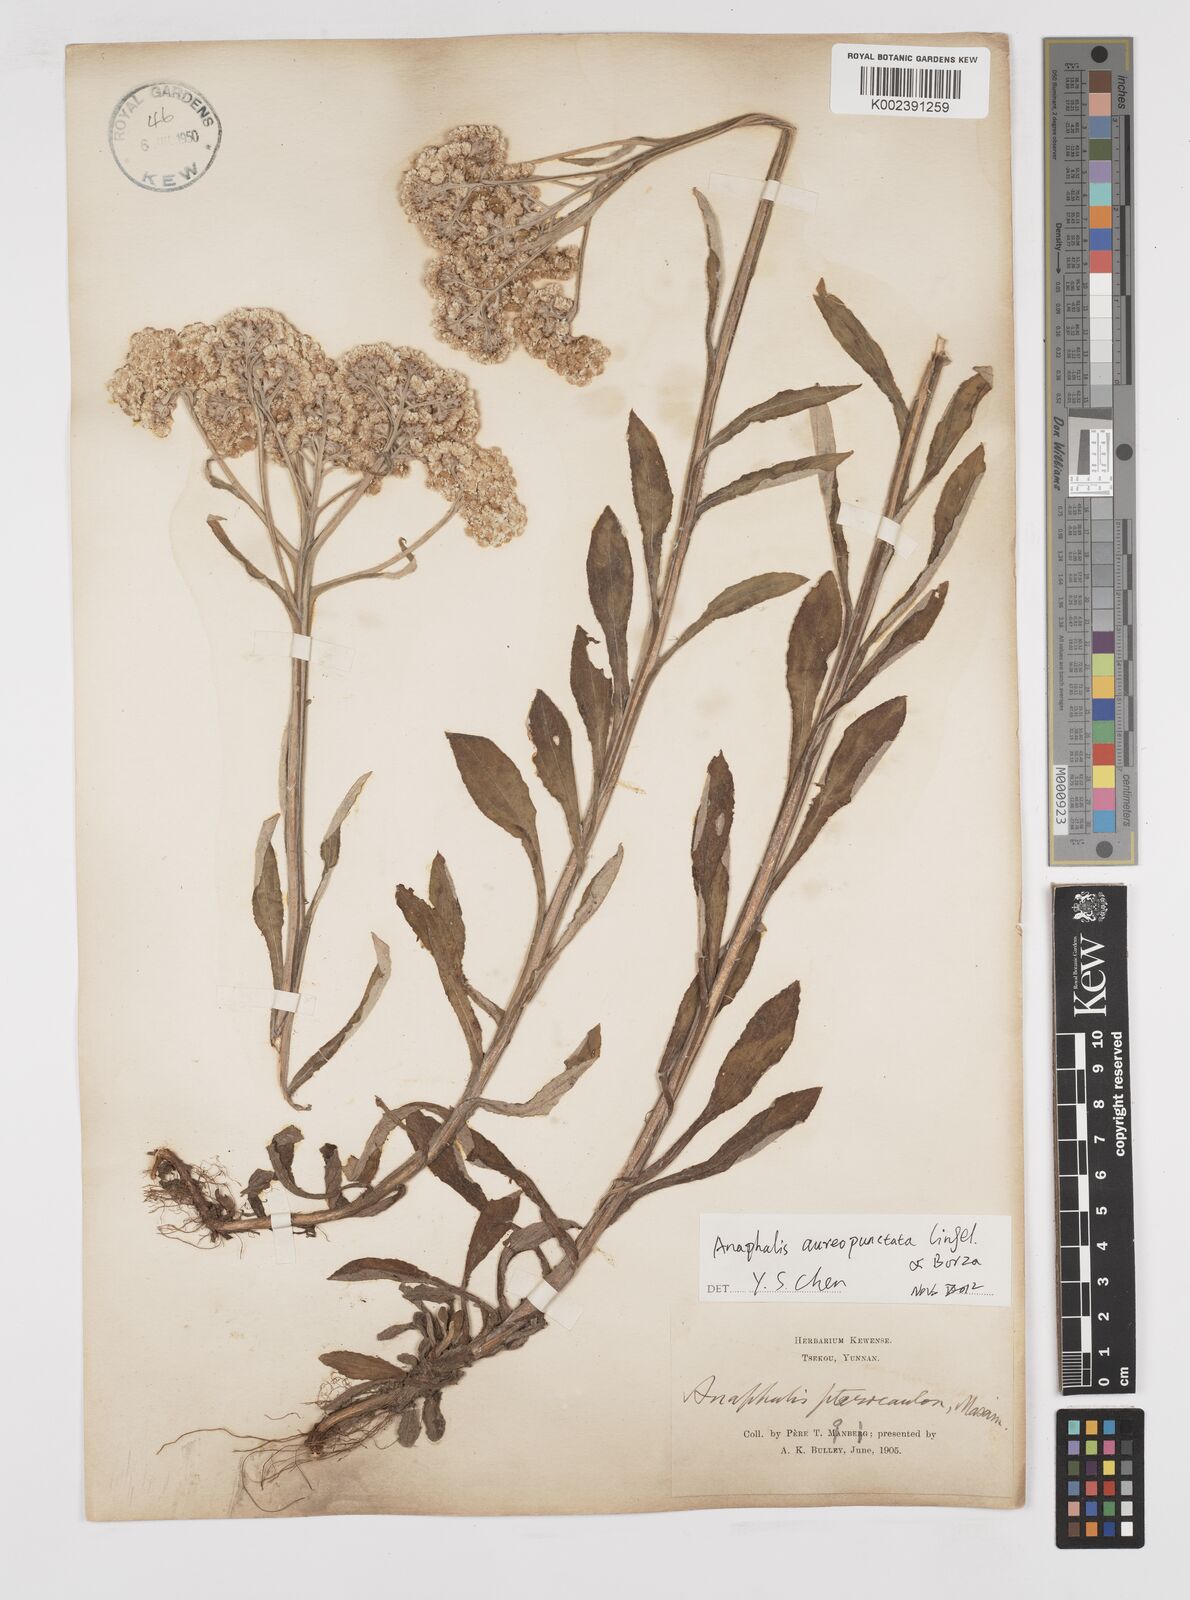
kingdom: Plantae
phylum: Tracheophyta
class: Magnoliopsida
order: Asterales
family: Asteraceae
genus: Anaphalis
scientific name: Anaphalis sinica
